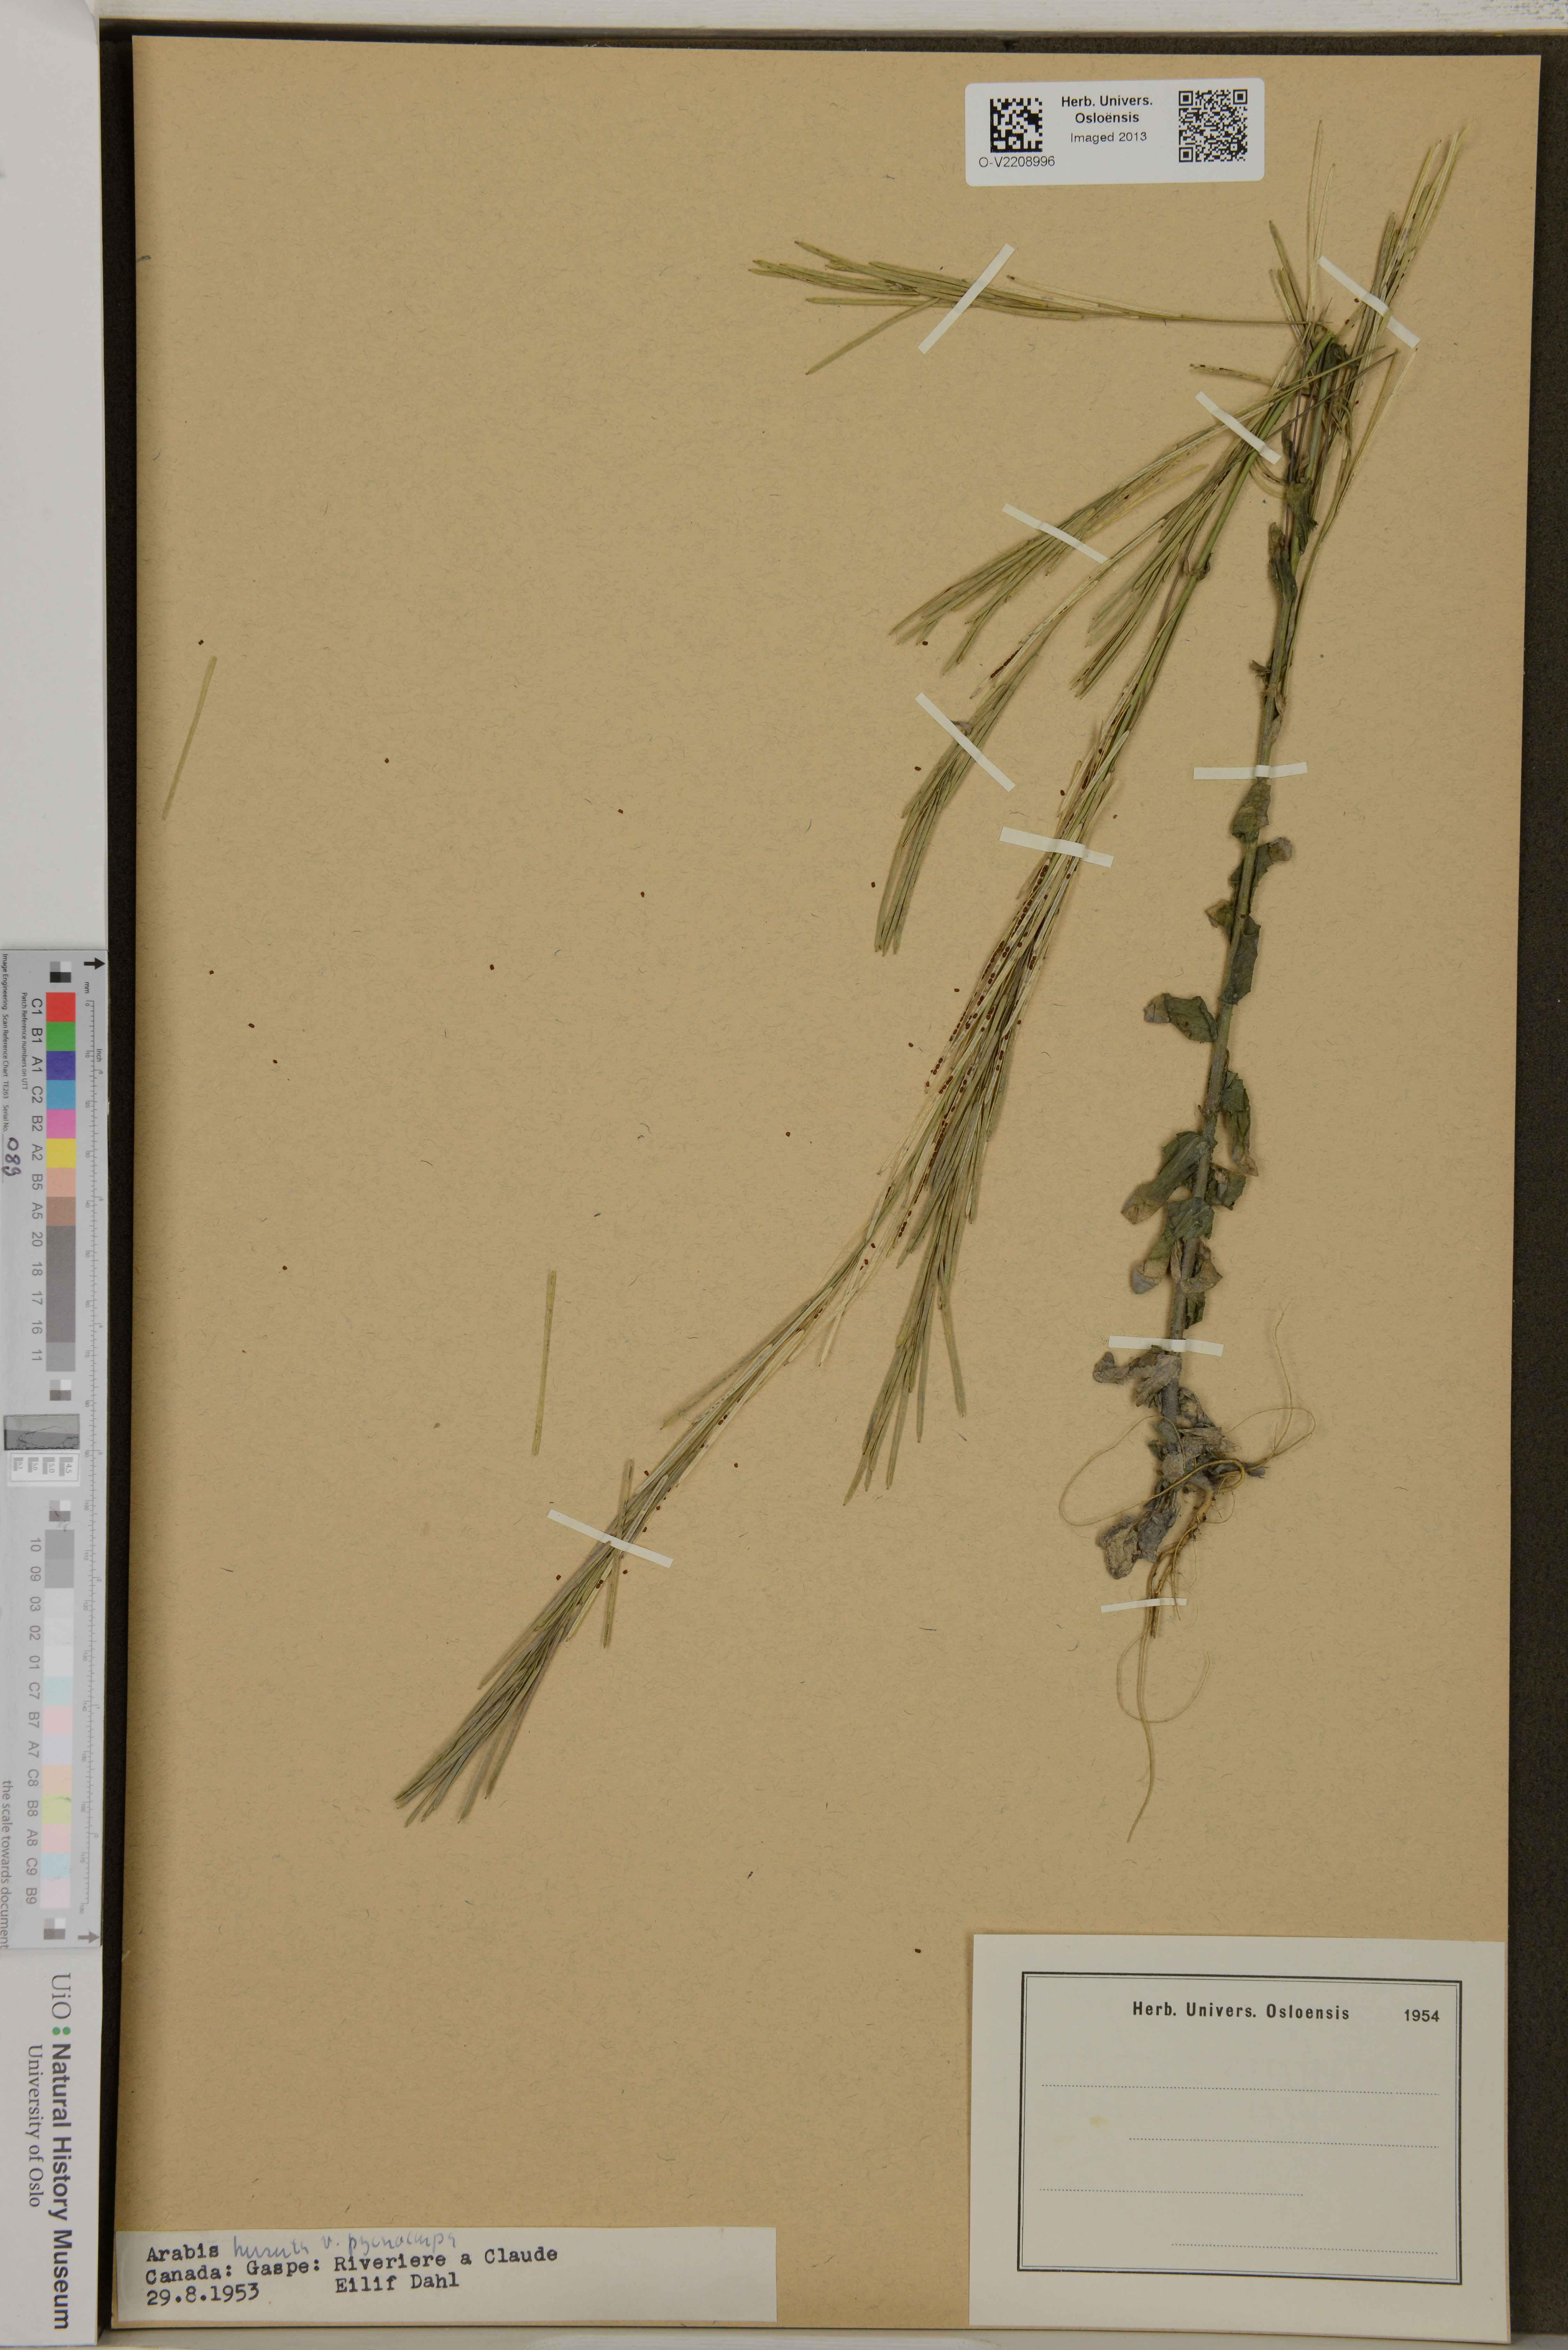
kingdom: Plantae
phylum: Tracheophyta
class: Magnoliopsida
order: Brassicales
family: Brassicaceae
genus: Arabis
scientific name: Arabis hirsuta
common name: Hairy rock-cress
